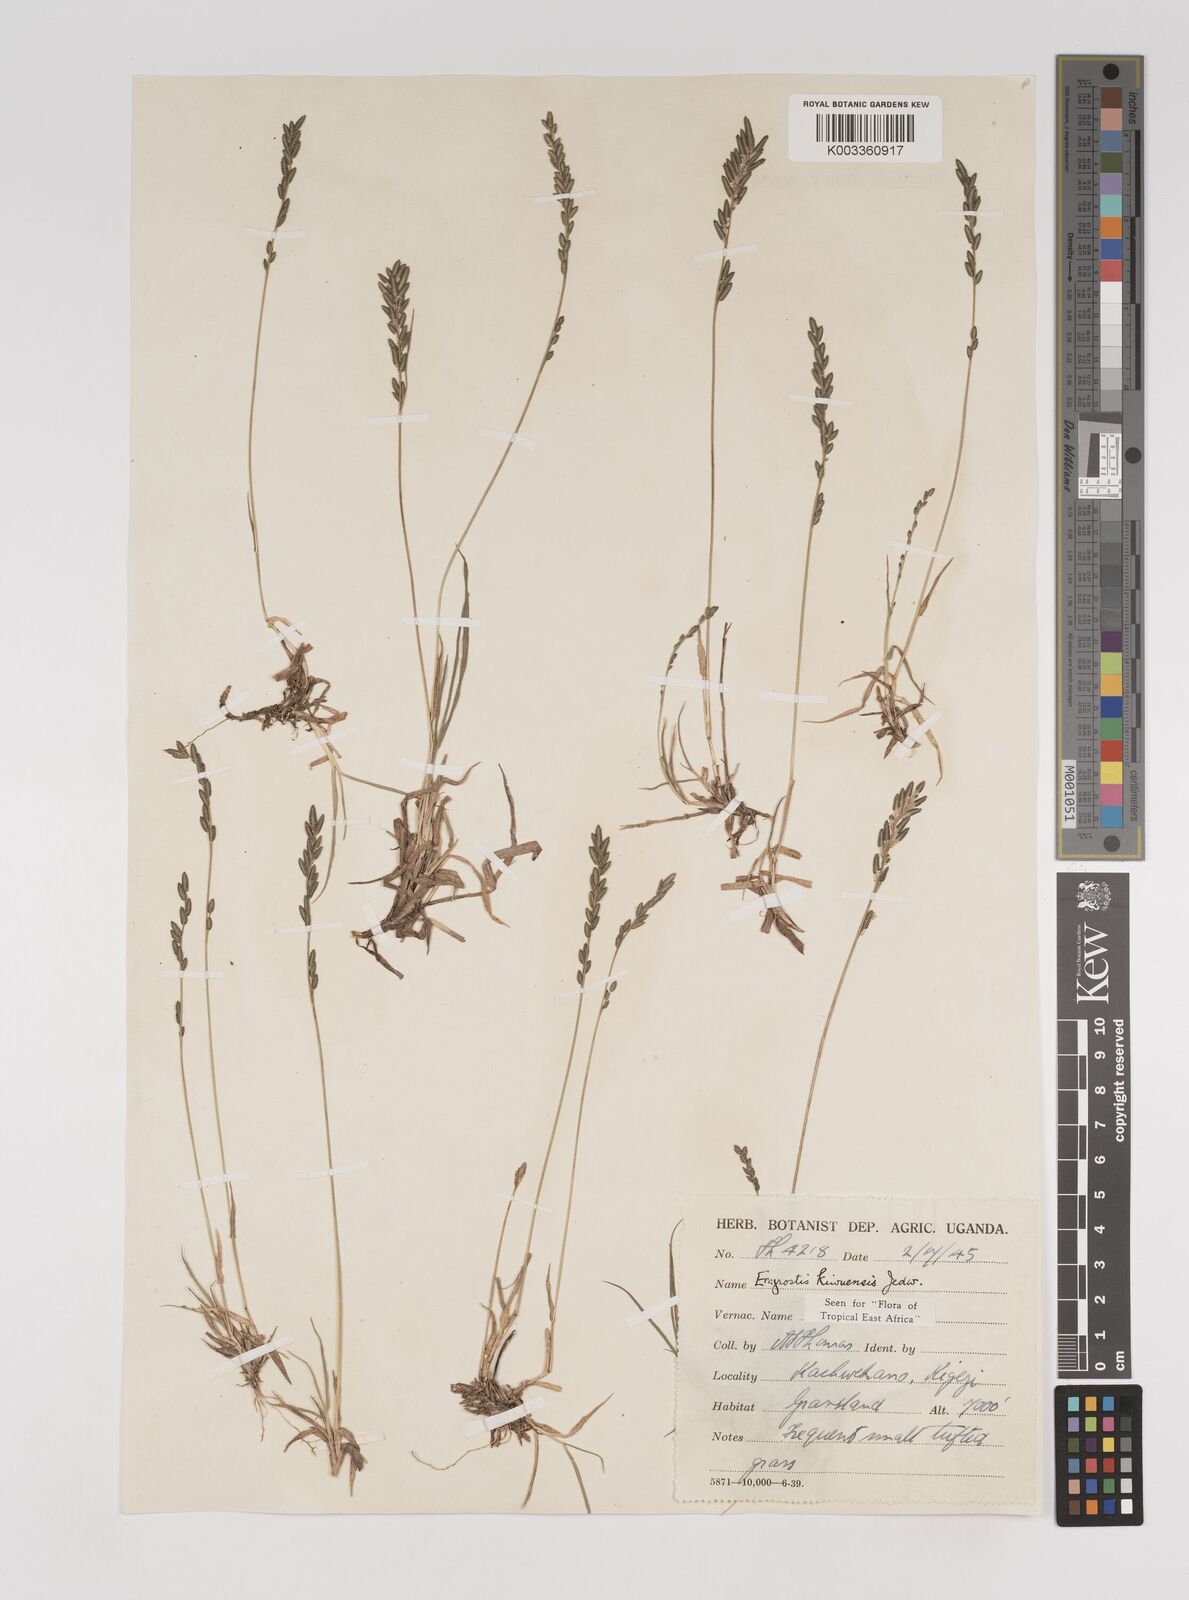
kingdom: Plantae
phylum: Tracheophyta
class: Liliopsida
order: Poales
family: Poaceae
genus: Eragrostis
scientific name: Eragrostis schweinfurthii
